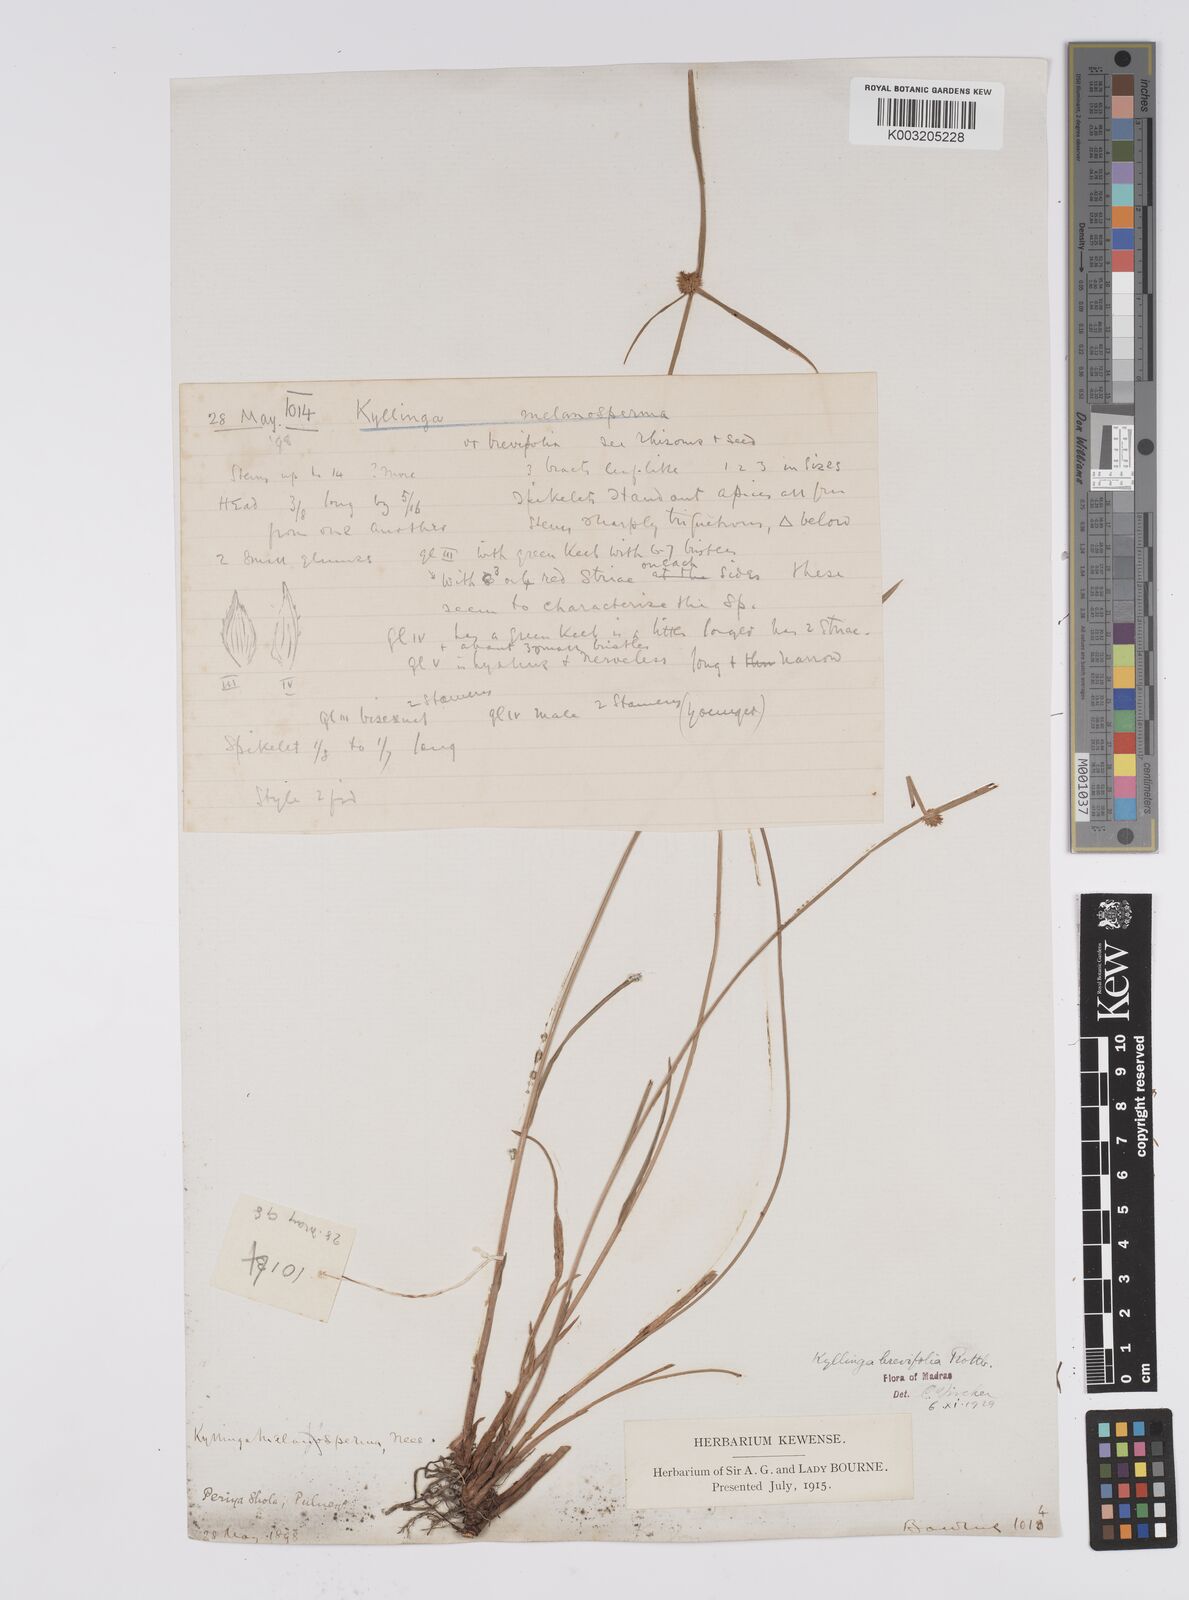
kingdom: Plantae
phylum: Tracheophyta
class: Liliopsida
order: Poales
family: Cyperaceae
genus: Cyperus
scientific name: Cyperus melanospermus
